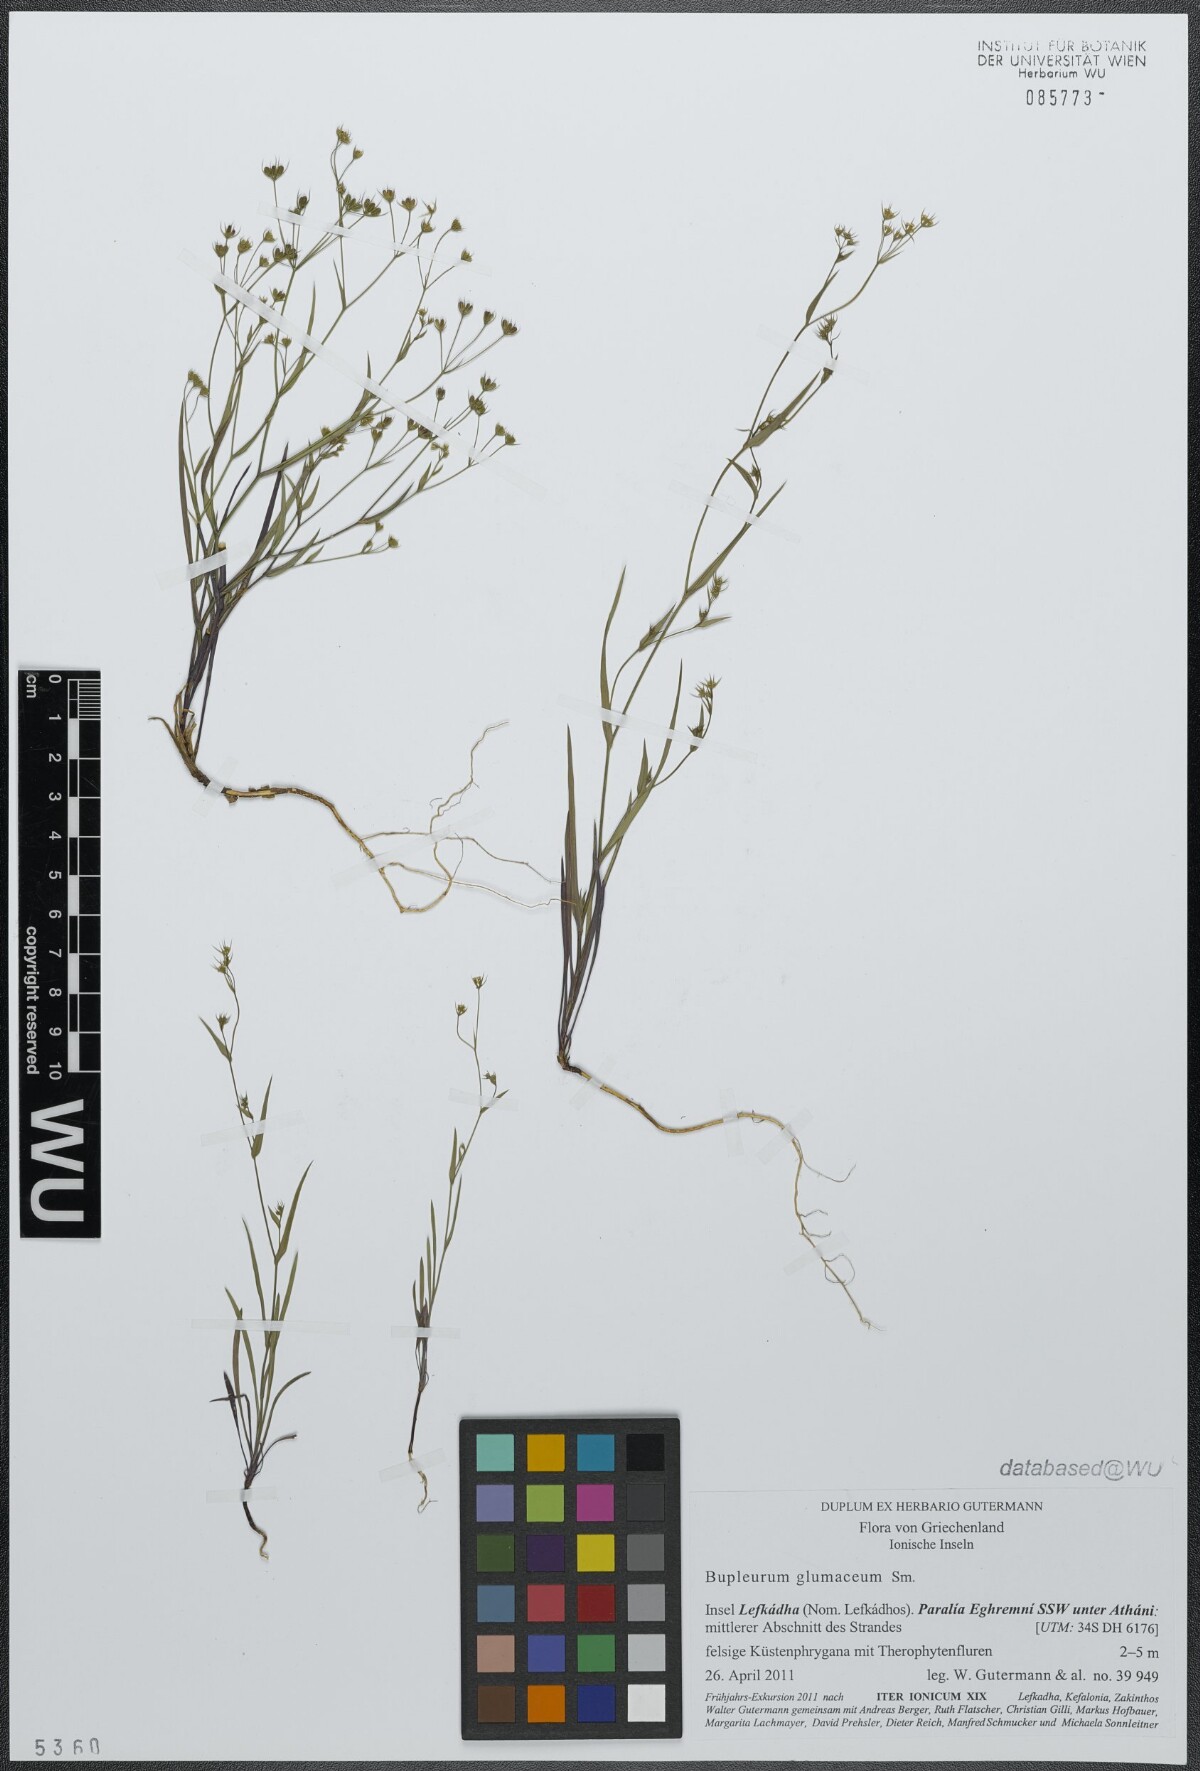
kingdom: Plantae
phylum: Tracheophyta
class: Magnoliopsida
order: Apiales
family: Apiaceae
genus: Bupleurum
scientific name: Bupleurum glumaceum
